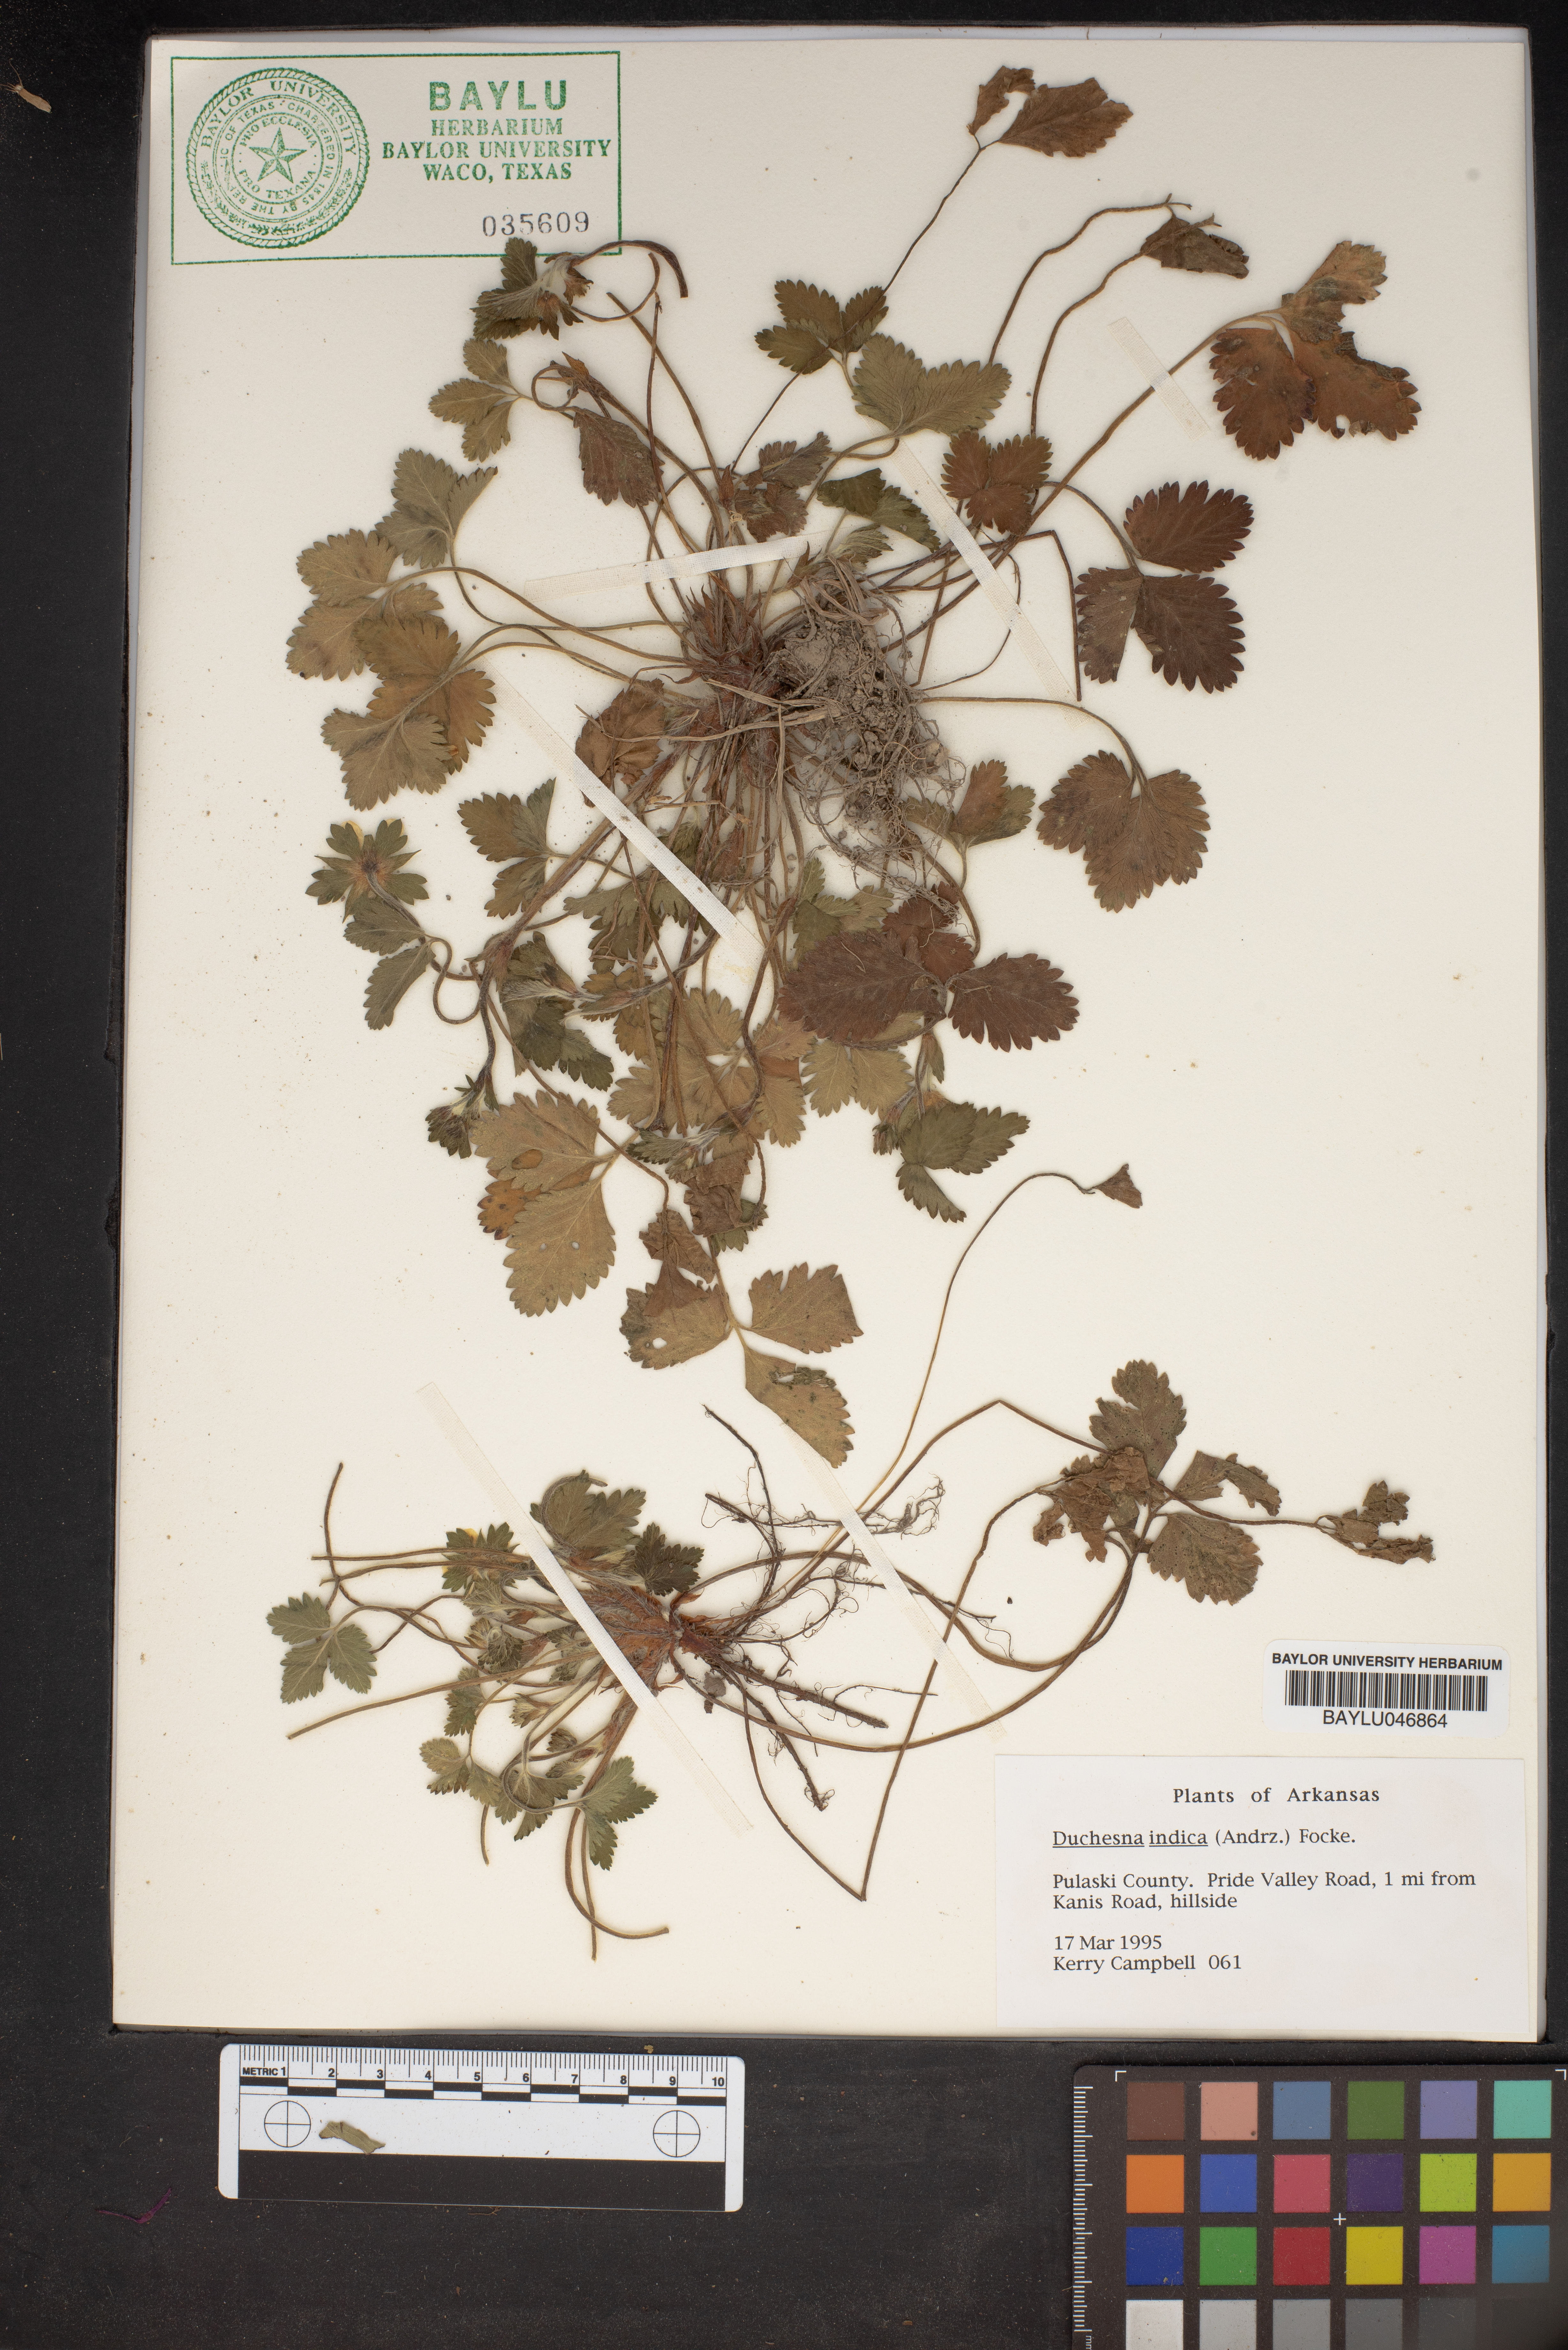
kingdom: Plantae
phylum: Tracheophyta
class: Magnoliopsida
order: Rosales
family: Rosaceae
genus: Potentilla
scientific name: Potentilla indica
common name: Yellow-flowered strawberry
